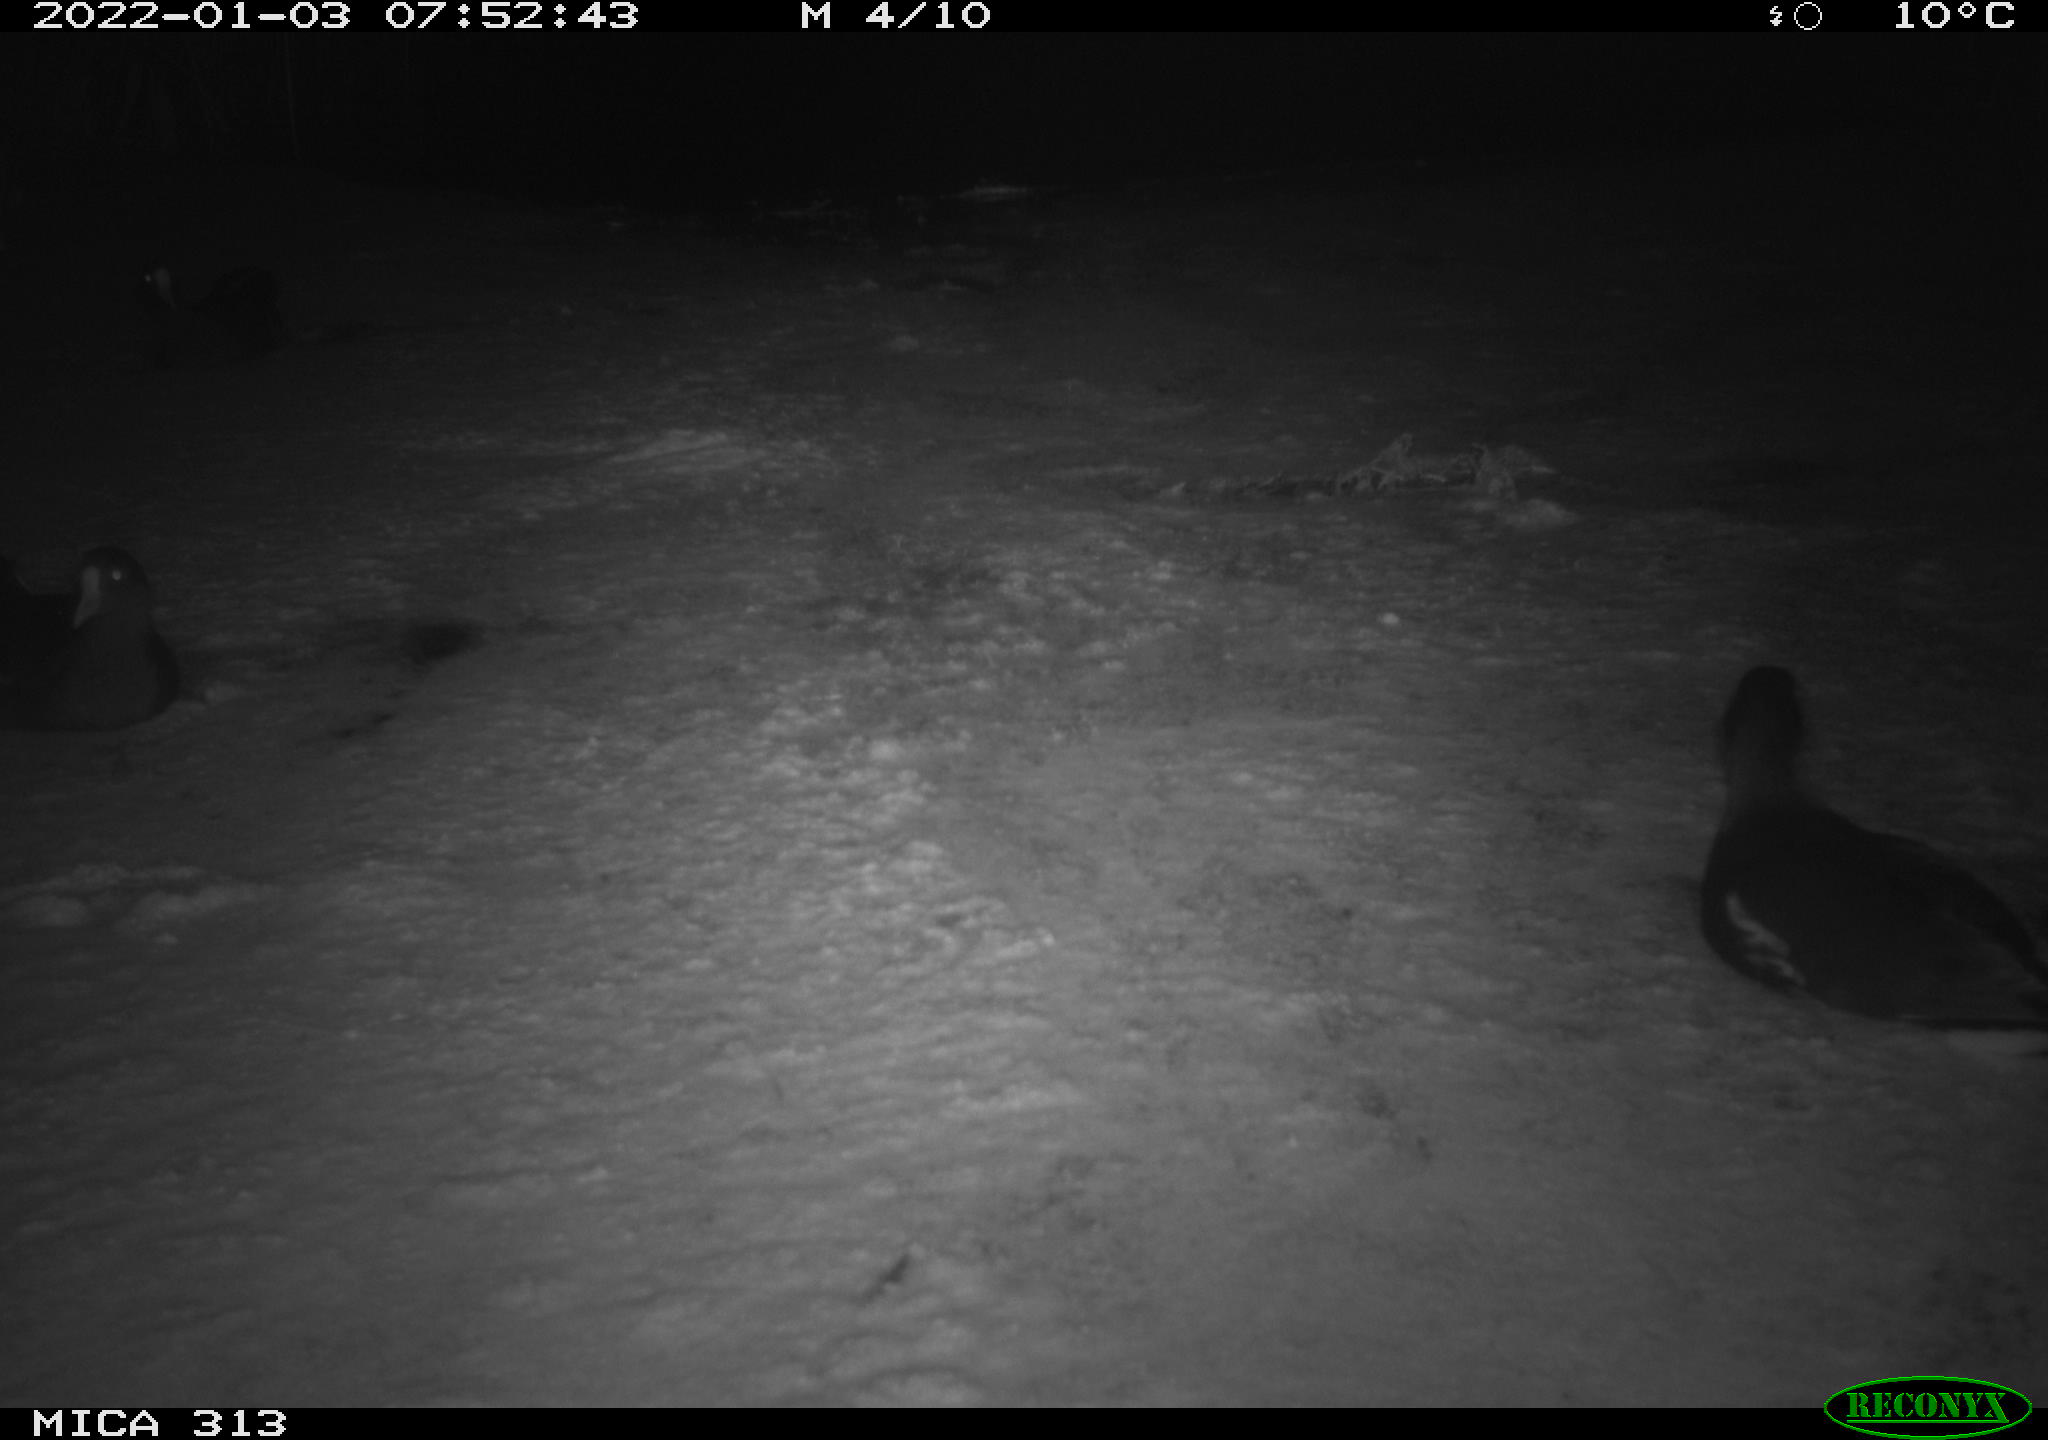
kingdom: Animalia
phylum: Chordata
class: Aves
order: Gruiformes
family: Rallidae
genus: Fulica
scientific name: Fulica atra
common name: Eurasian coot
